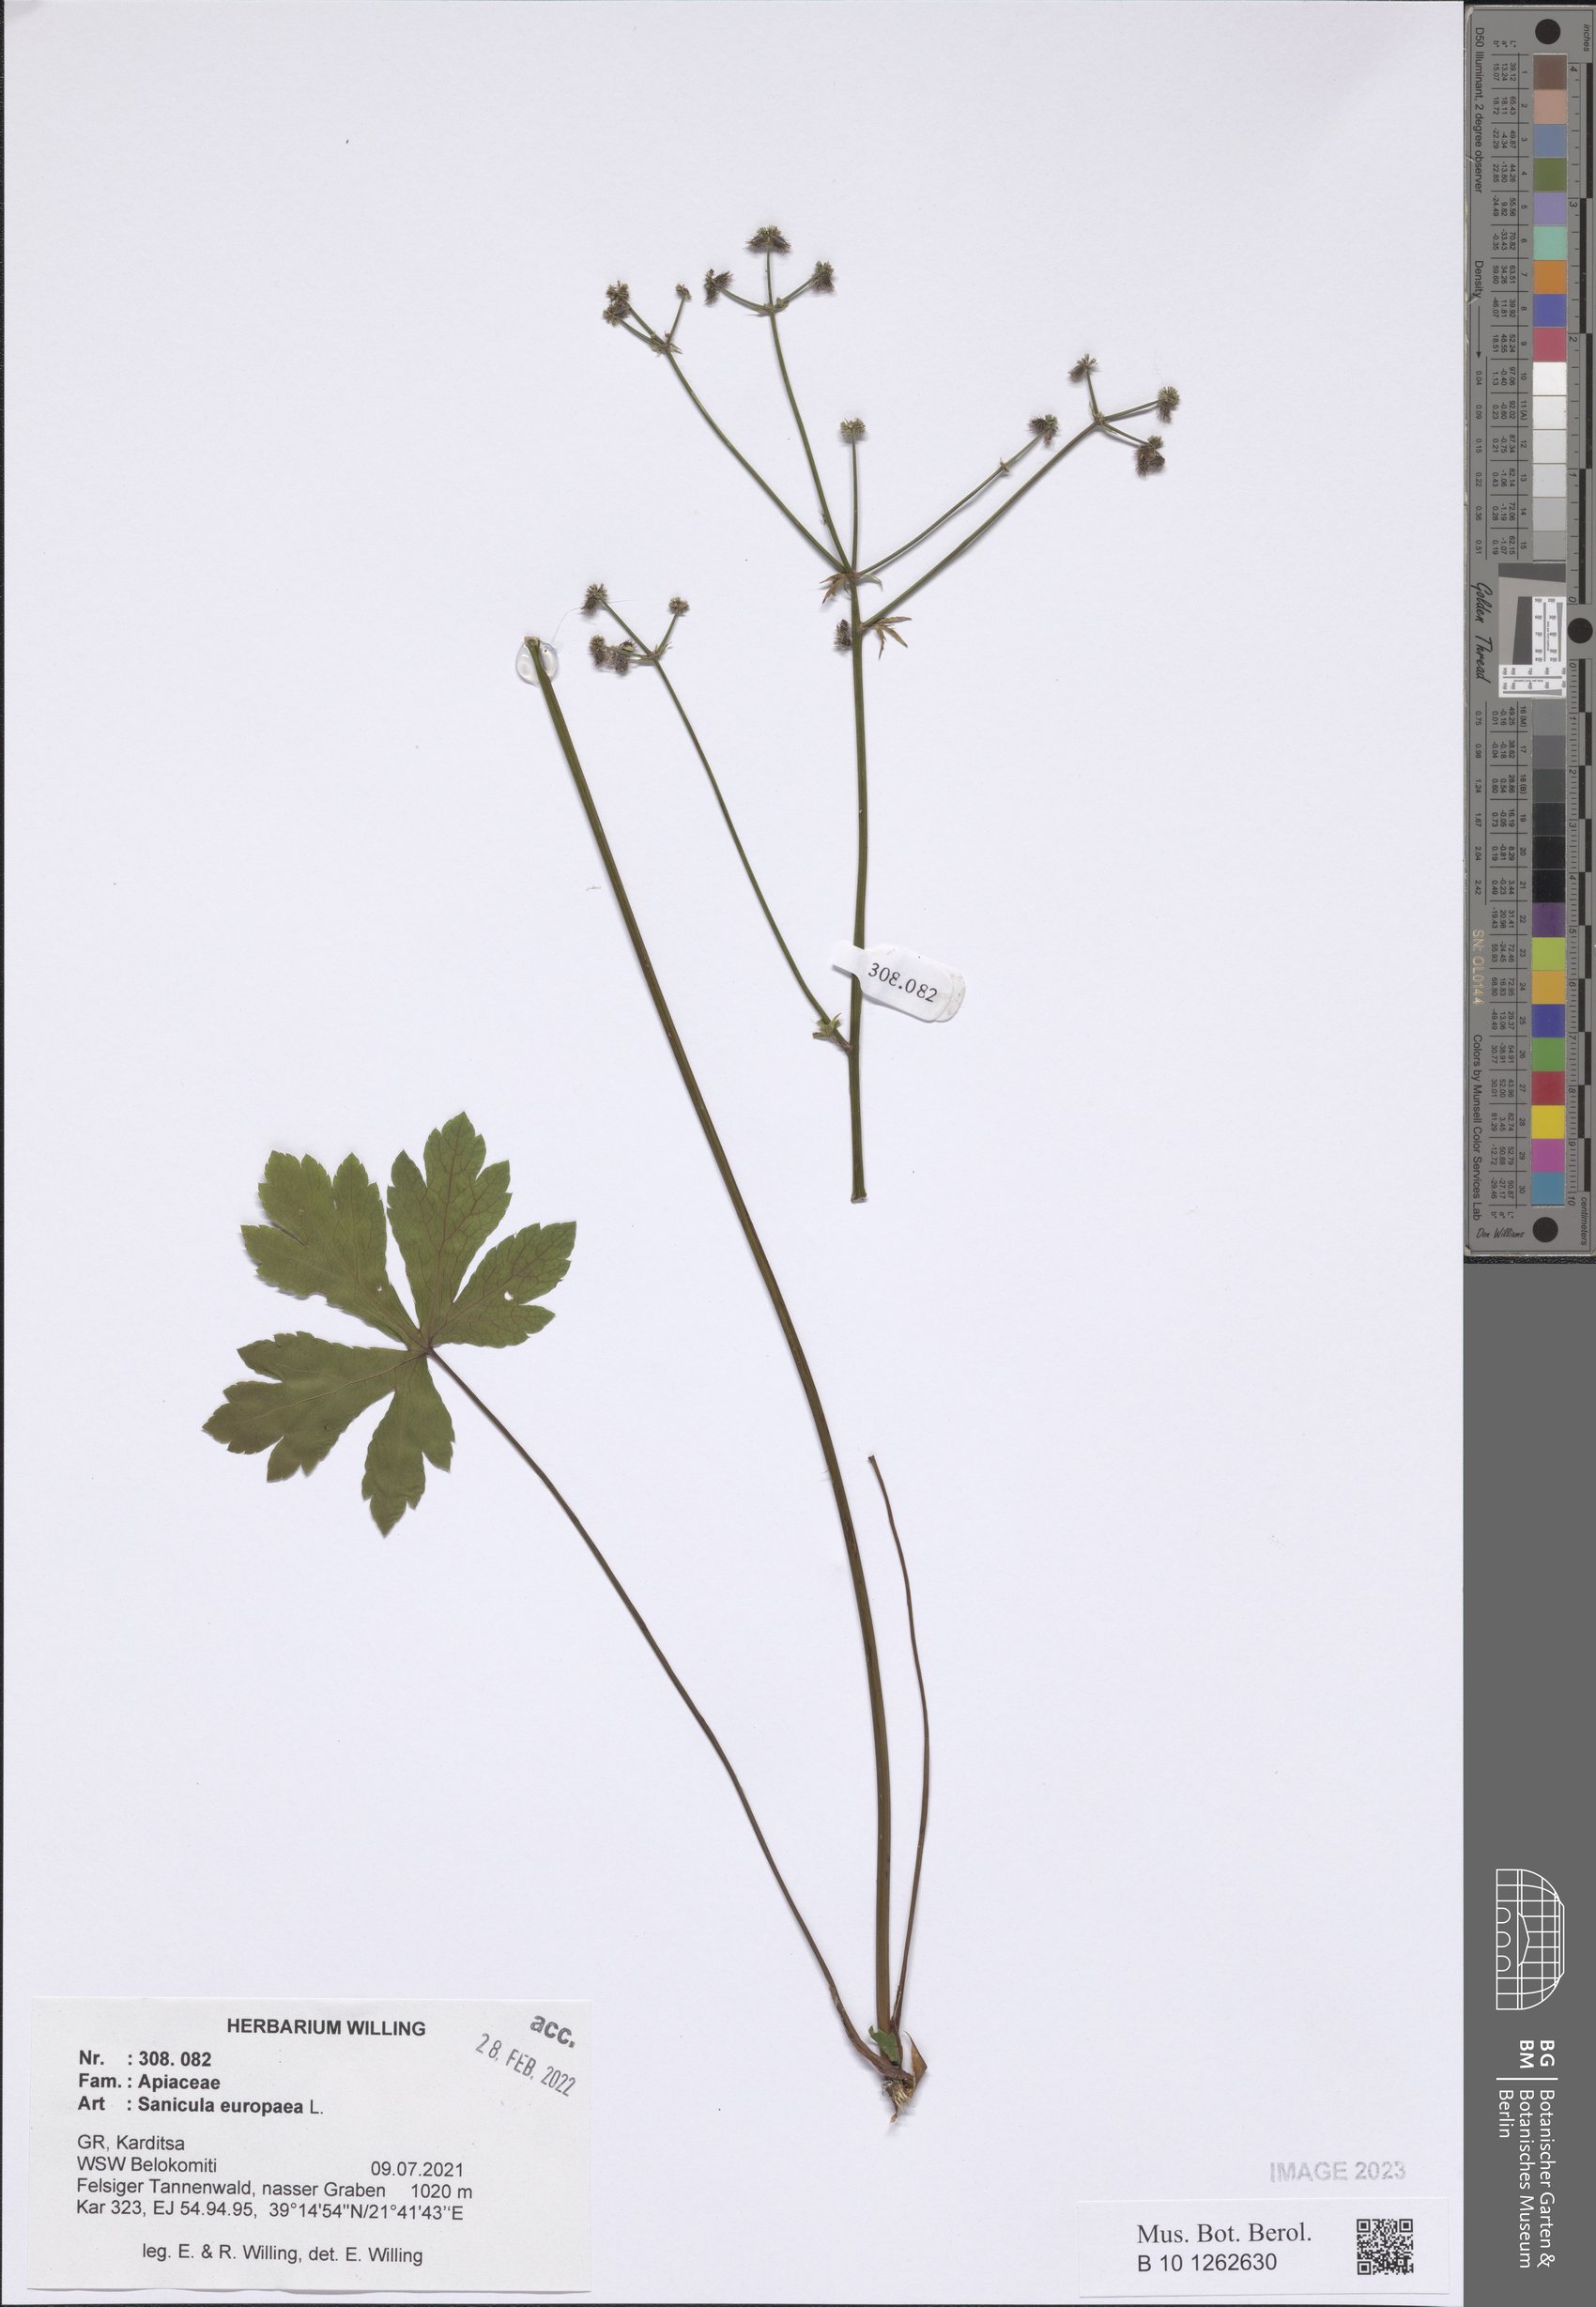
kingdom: Plantae
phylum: Tracheophyta
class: Magnoliopsida
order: Apiales
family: Apiaceae
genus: Sanicula
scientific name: Sanicula europaea
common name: Sanicle
